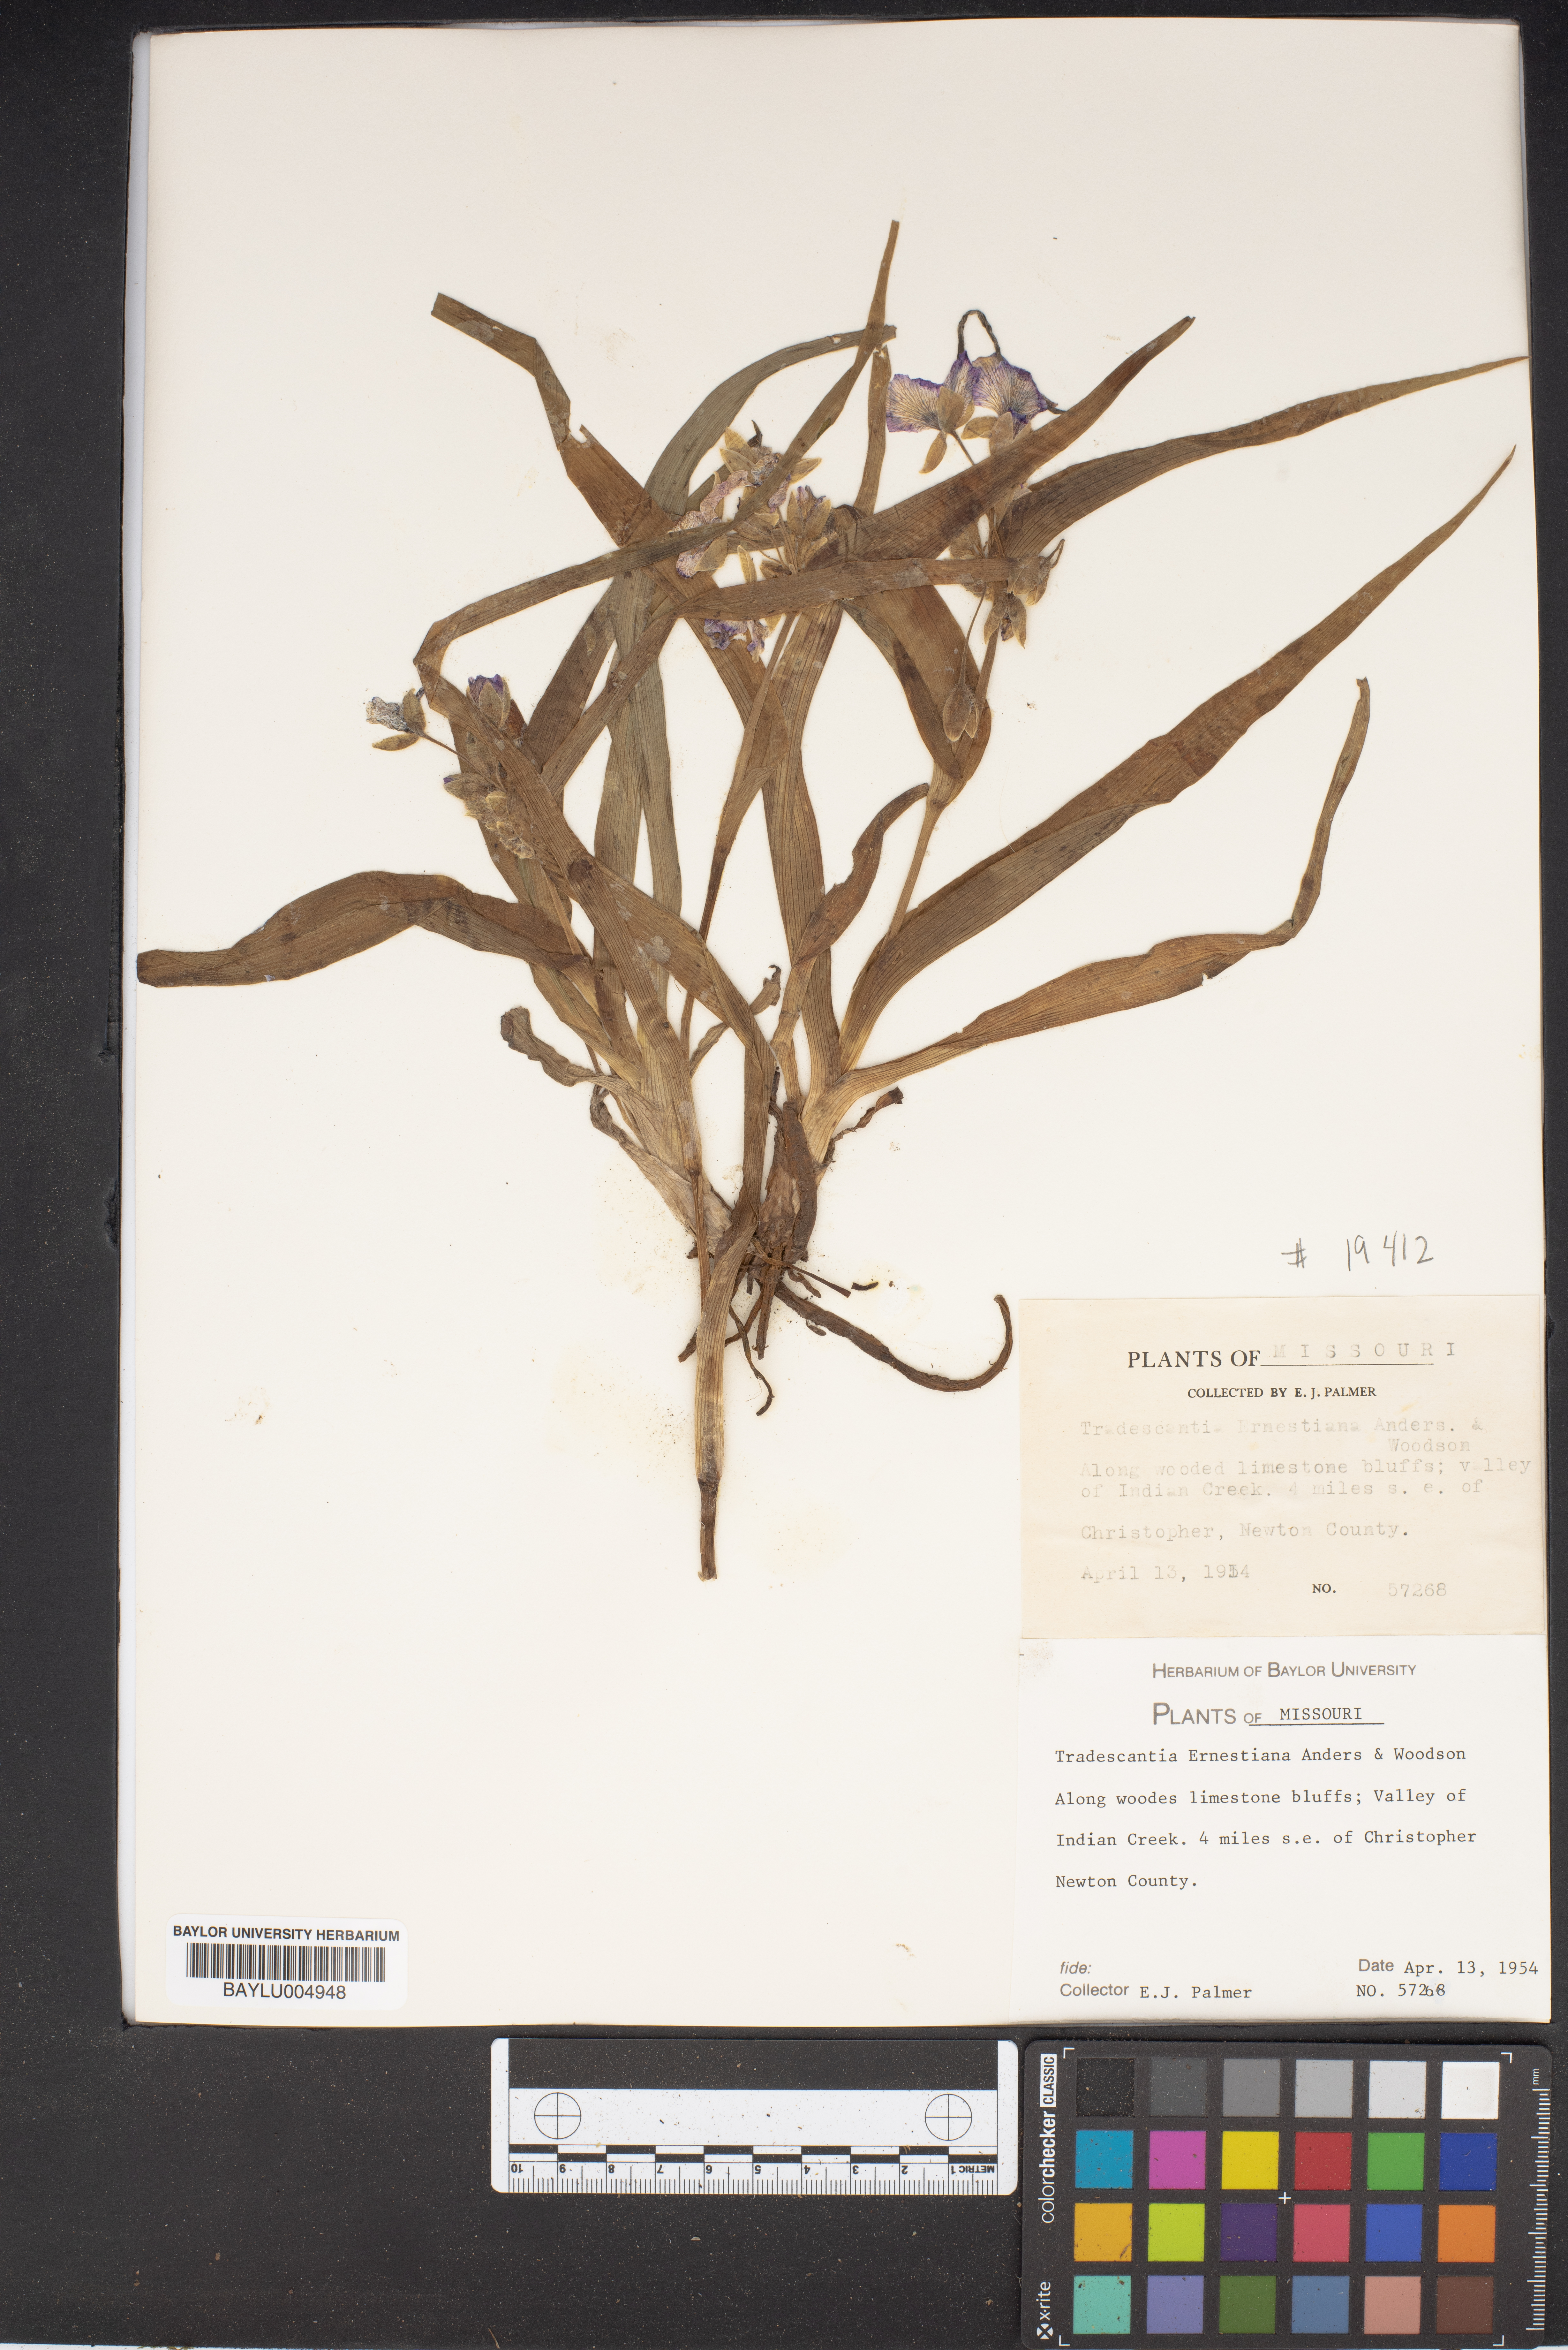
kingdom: Plantae
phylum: Tracheophyta
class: Liliopsida
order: Commelinales
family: Commelinaceae
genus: Tradescantia
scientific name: Tradescantia ernestiana
